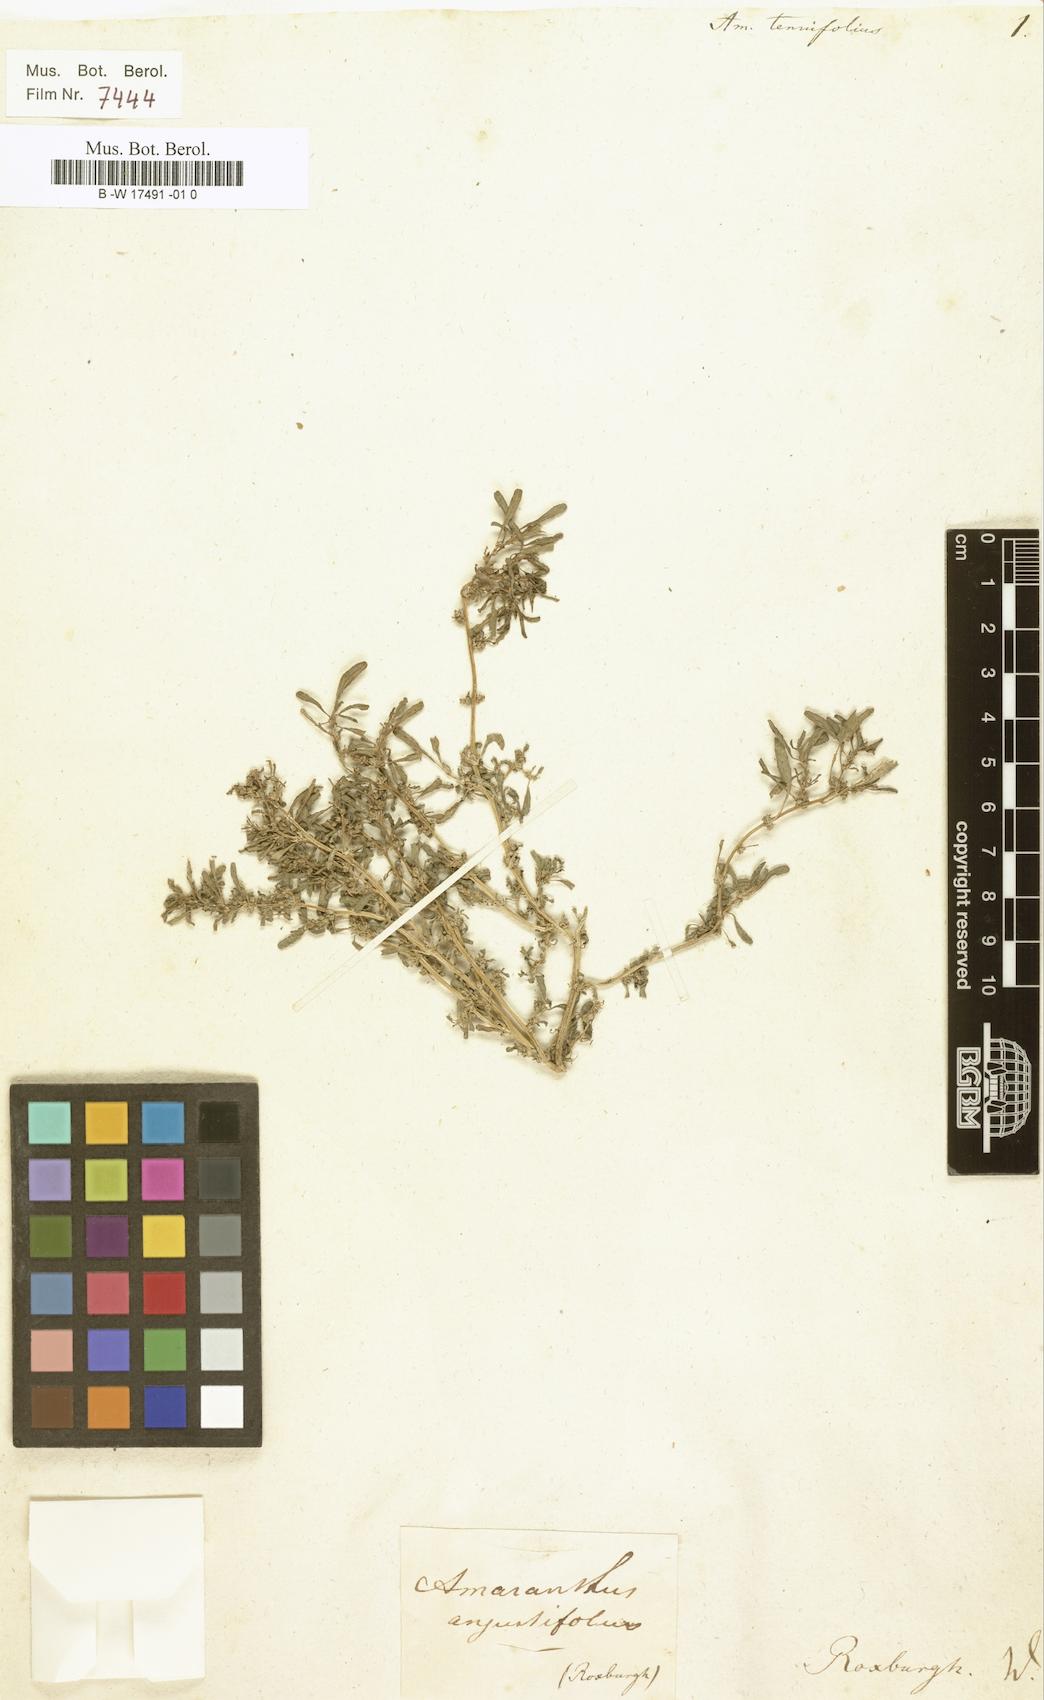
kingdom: Plantae
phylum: Tracheophyta
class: Magnoliopsida
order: Caryophyllales
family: Amaranthaceae
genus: Amaranthus
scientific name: Amaranthus graecizans
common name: Mediterranean amaranth
